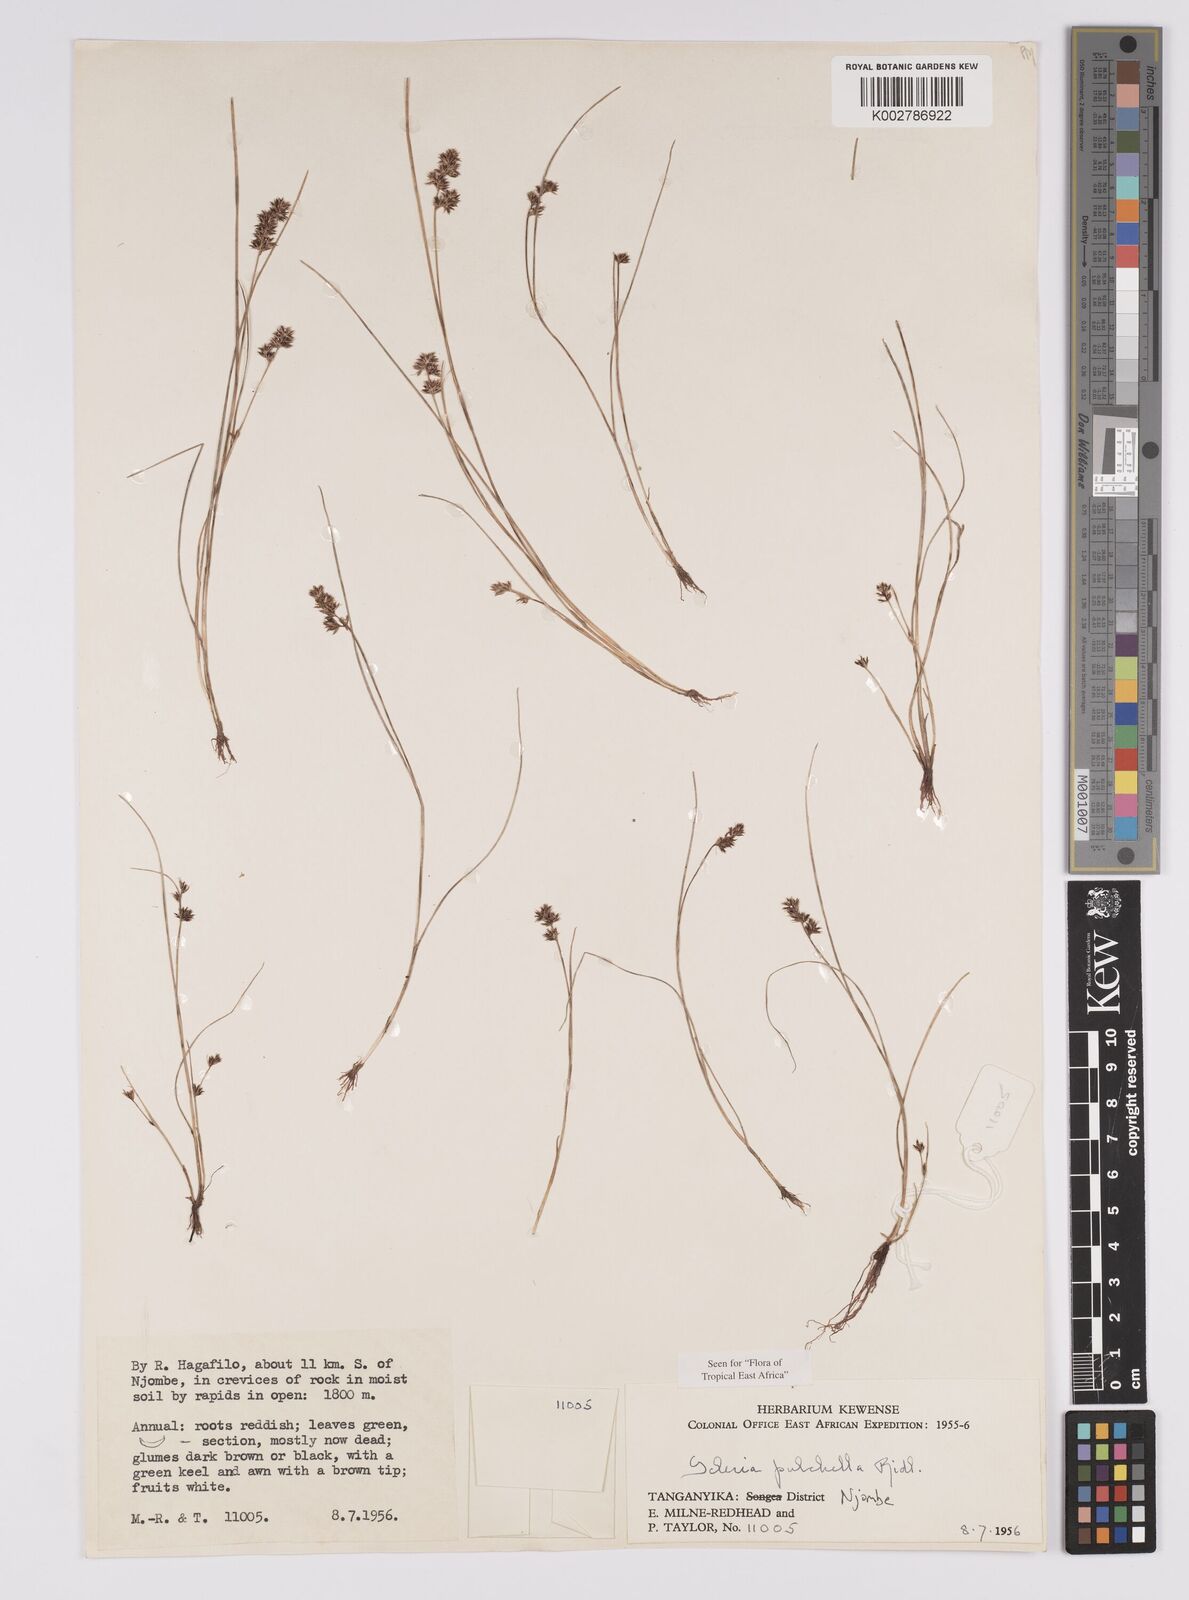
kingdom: Plantae
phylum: Tracheophyta
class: Liliopsida
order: Poales
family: Cyperaceae
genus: Scleria
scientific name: Scleria pulchella
